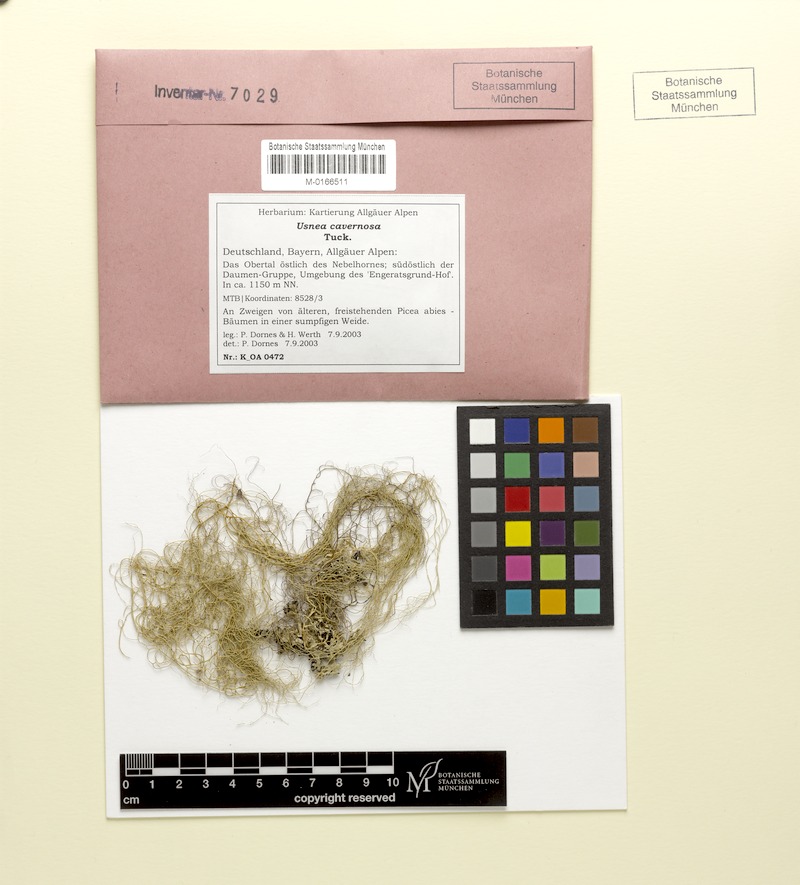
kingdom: Fungi
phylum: Ascomycota
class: Lecanoromycetes
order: Lecanorales
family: Parmeliaceae
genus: Usnea
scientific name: Usnea cavernosa
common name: Pitted beard lichen
